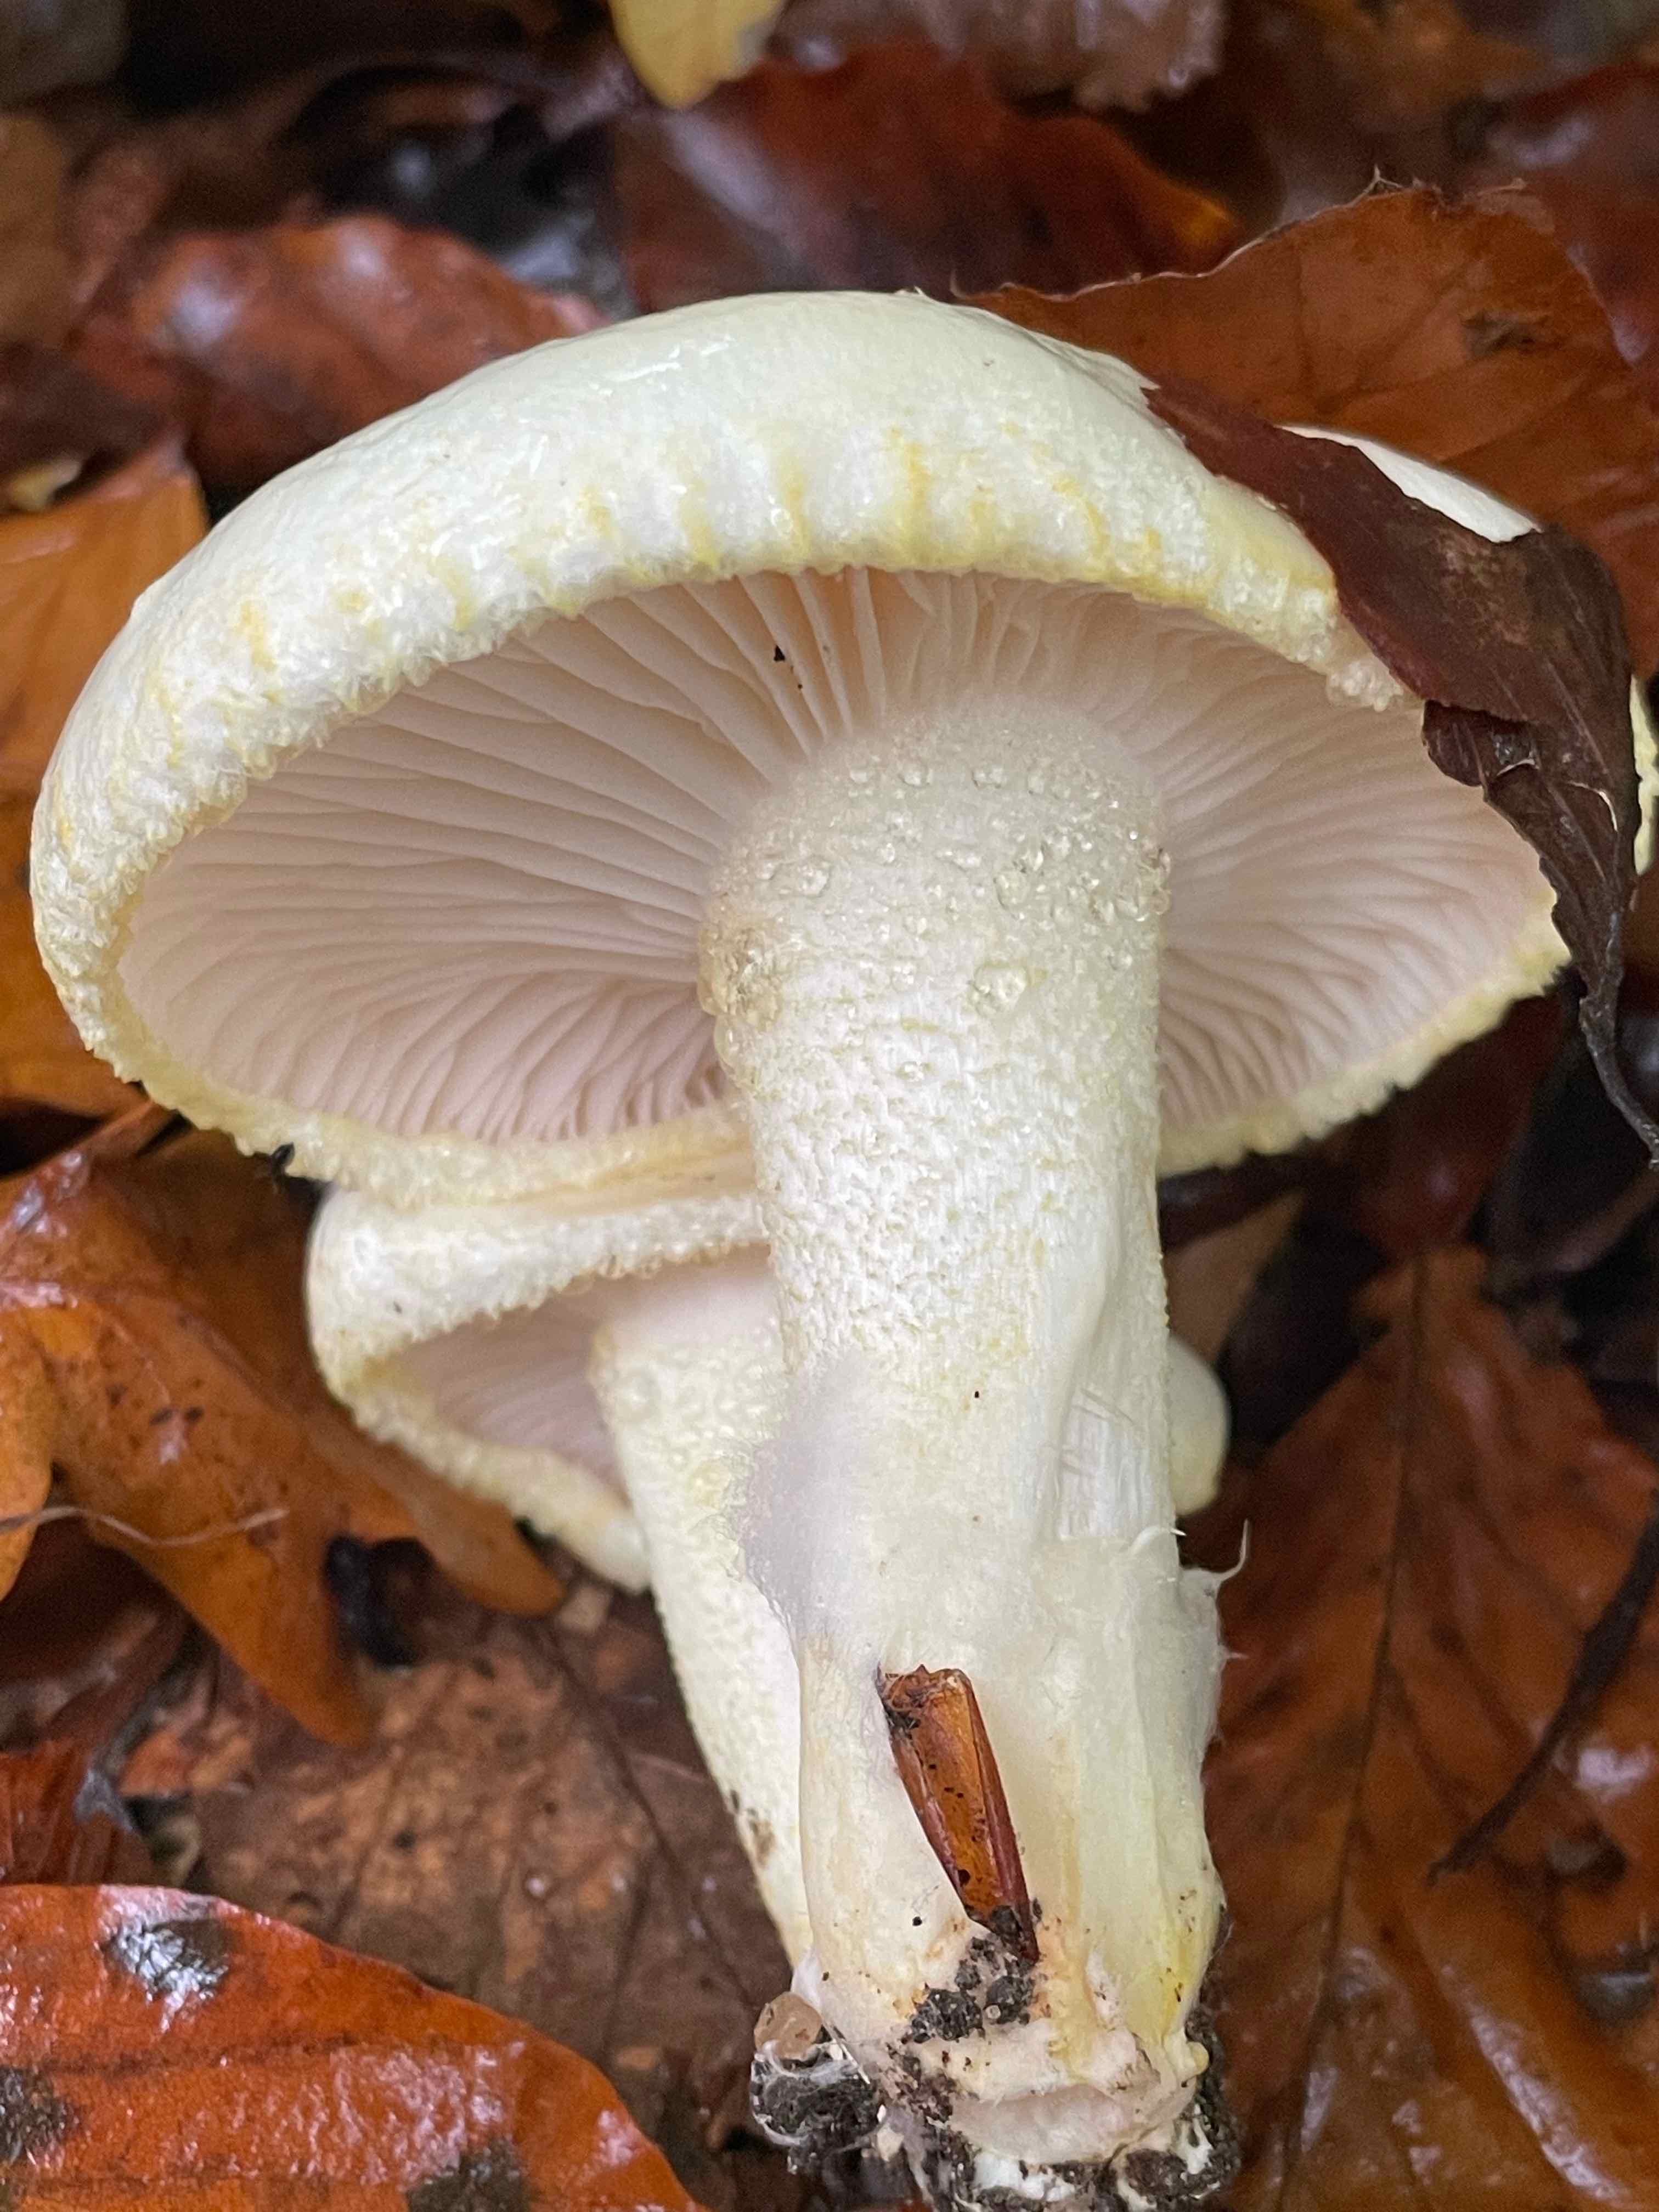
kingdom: Fungi
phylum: Basidiomycota
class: Agaricomycetes
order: Agaricales
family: Hygrophoraceae
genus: Hygrophorus
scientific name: Hygrophorus chrysodon
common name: gulfnugget sneglehat
